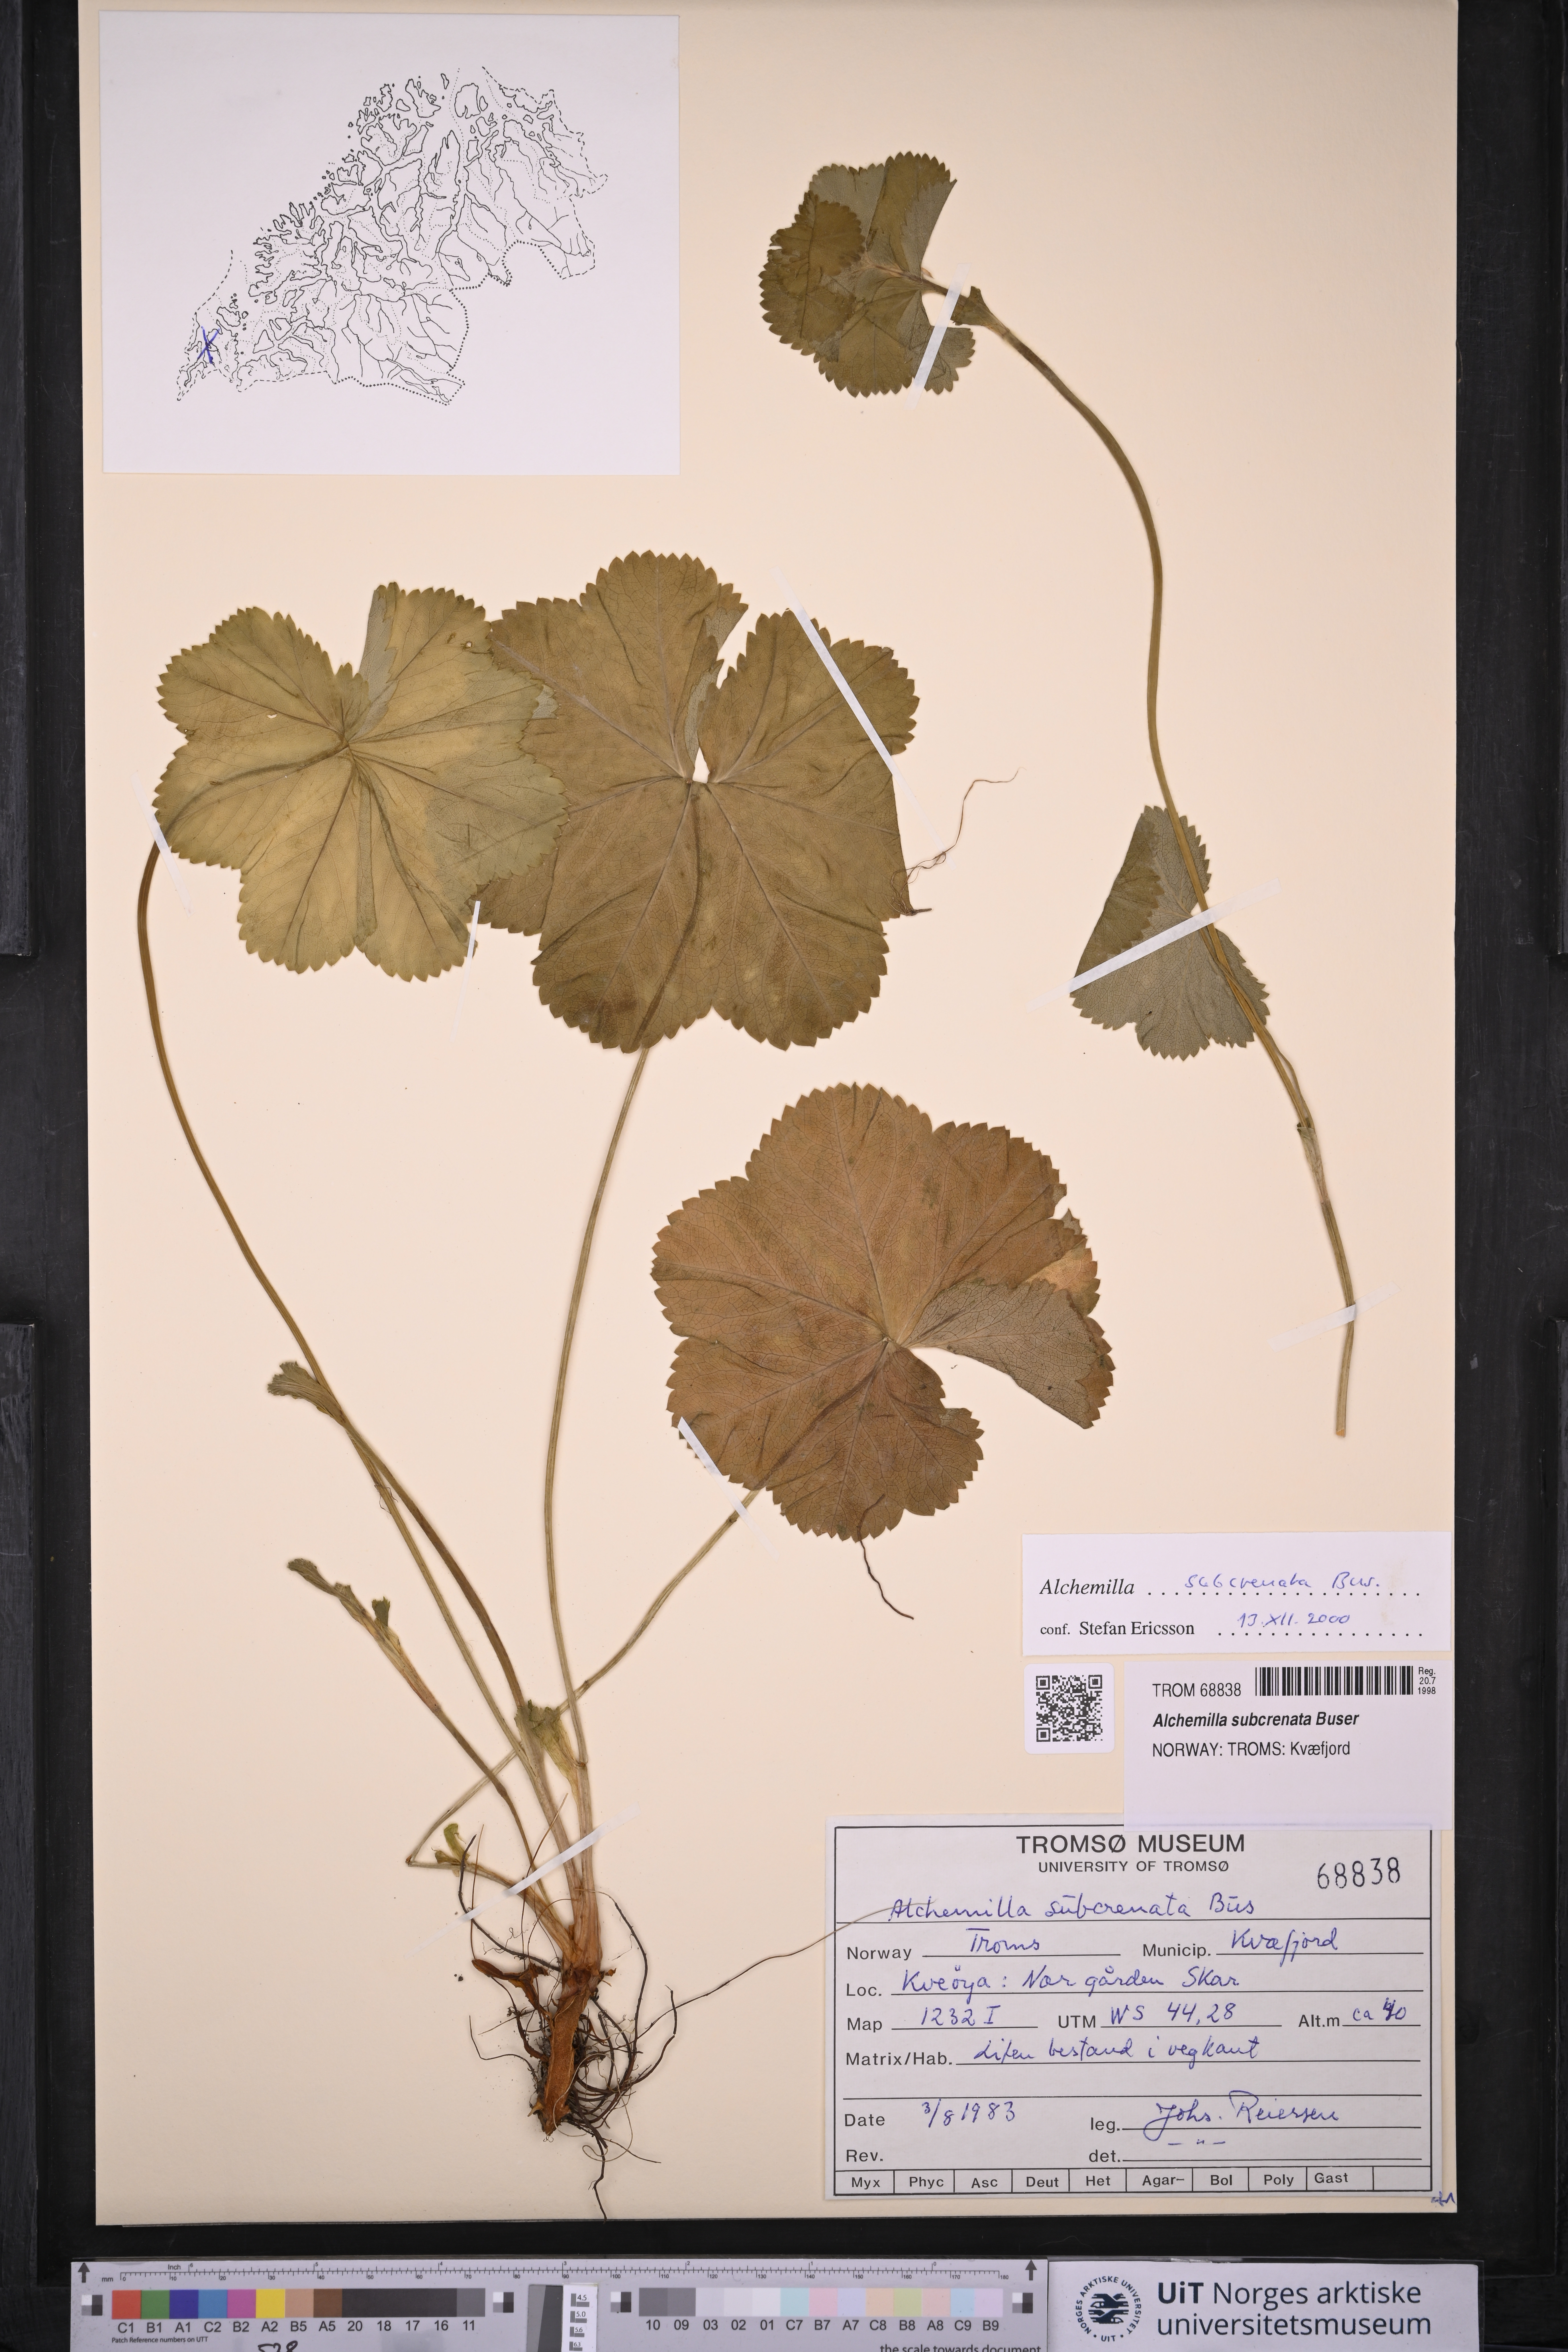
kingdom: Plantae
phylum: Tracheophyta
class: Magnoliopsida
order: Rosales
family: Rosaceae
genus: Alchemilla
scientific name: Alchemilla subcrenata
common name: Broadtooth lady's mantle
